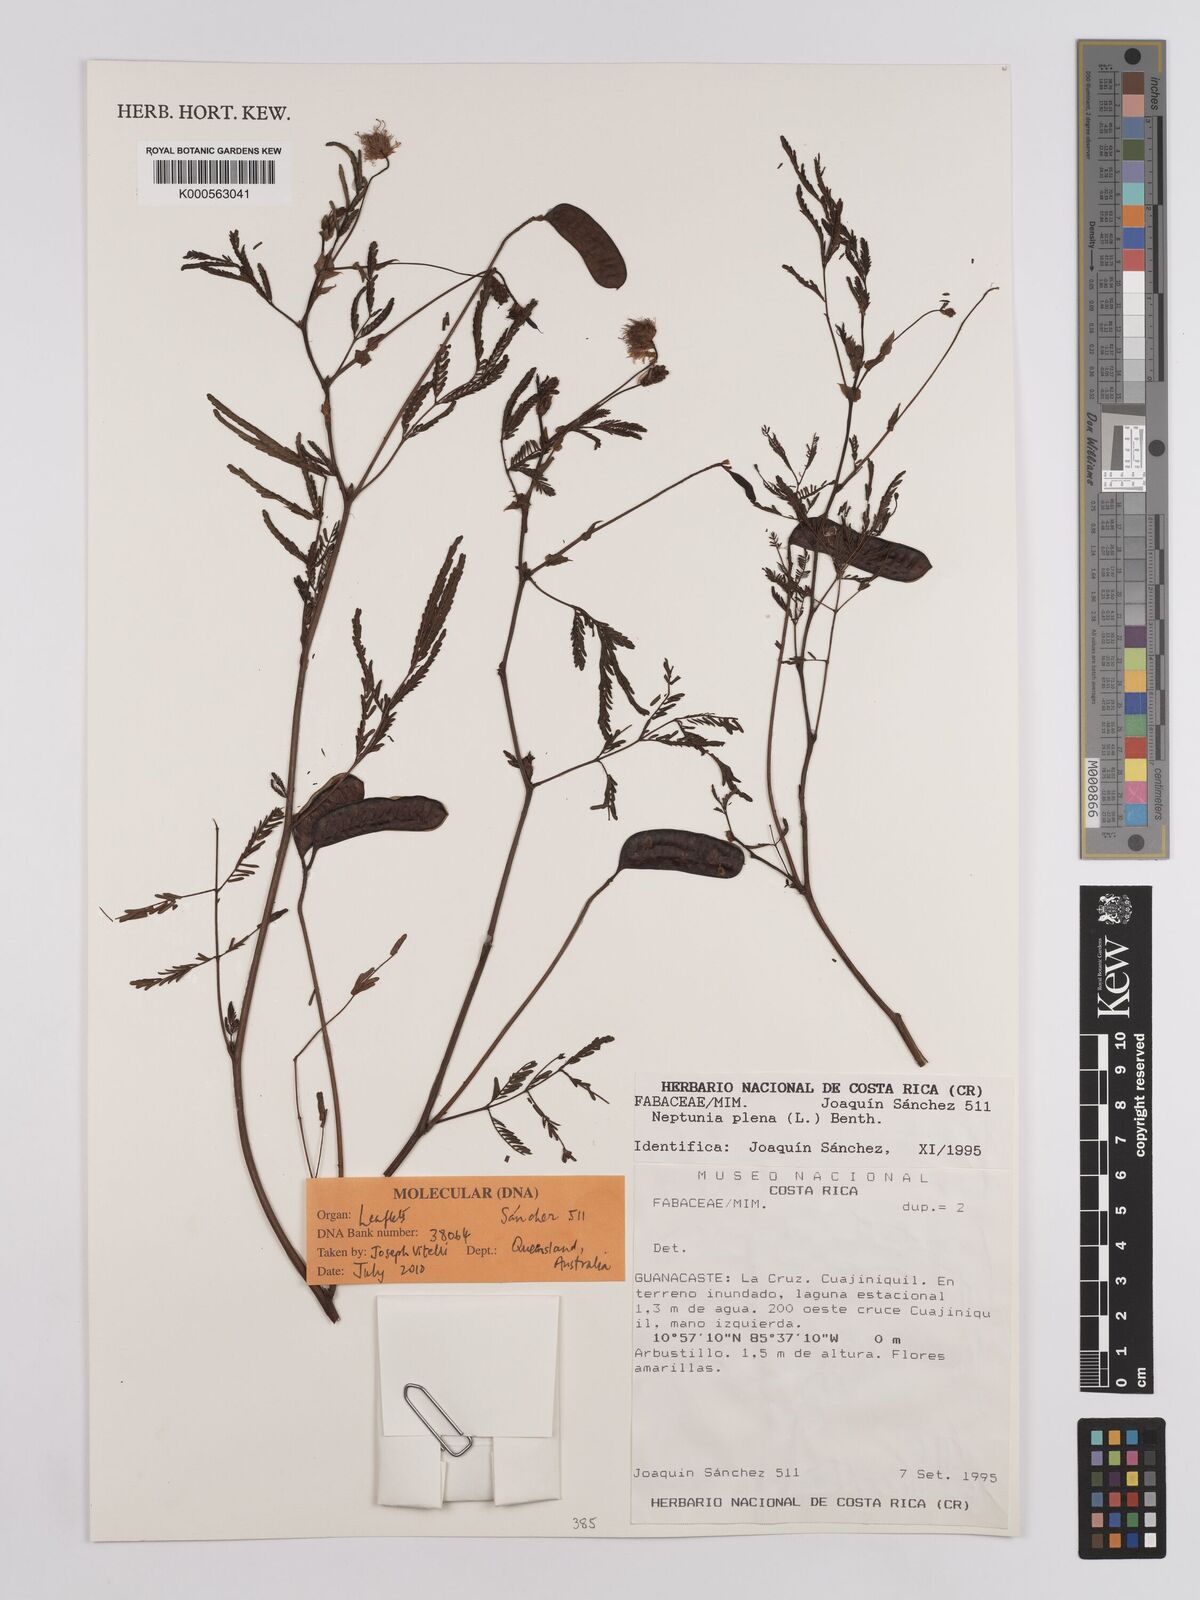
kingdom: Plantae
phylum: Tracheophyta
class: Magnoliopsida
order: Fabales
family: Fabaceae
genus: Neptunia
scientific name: Neptunia plena
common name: Dead and awake
